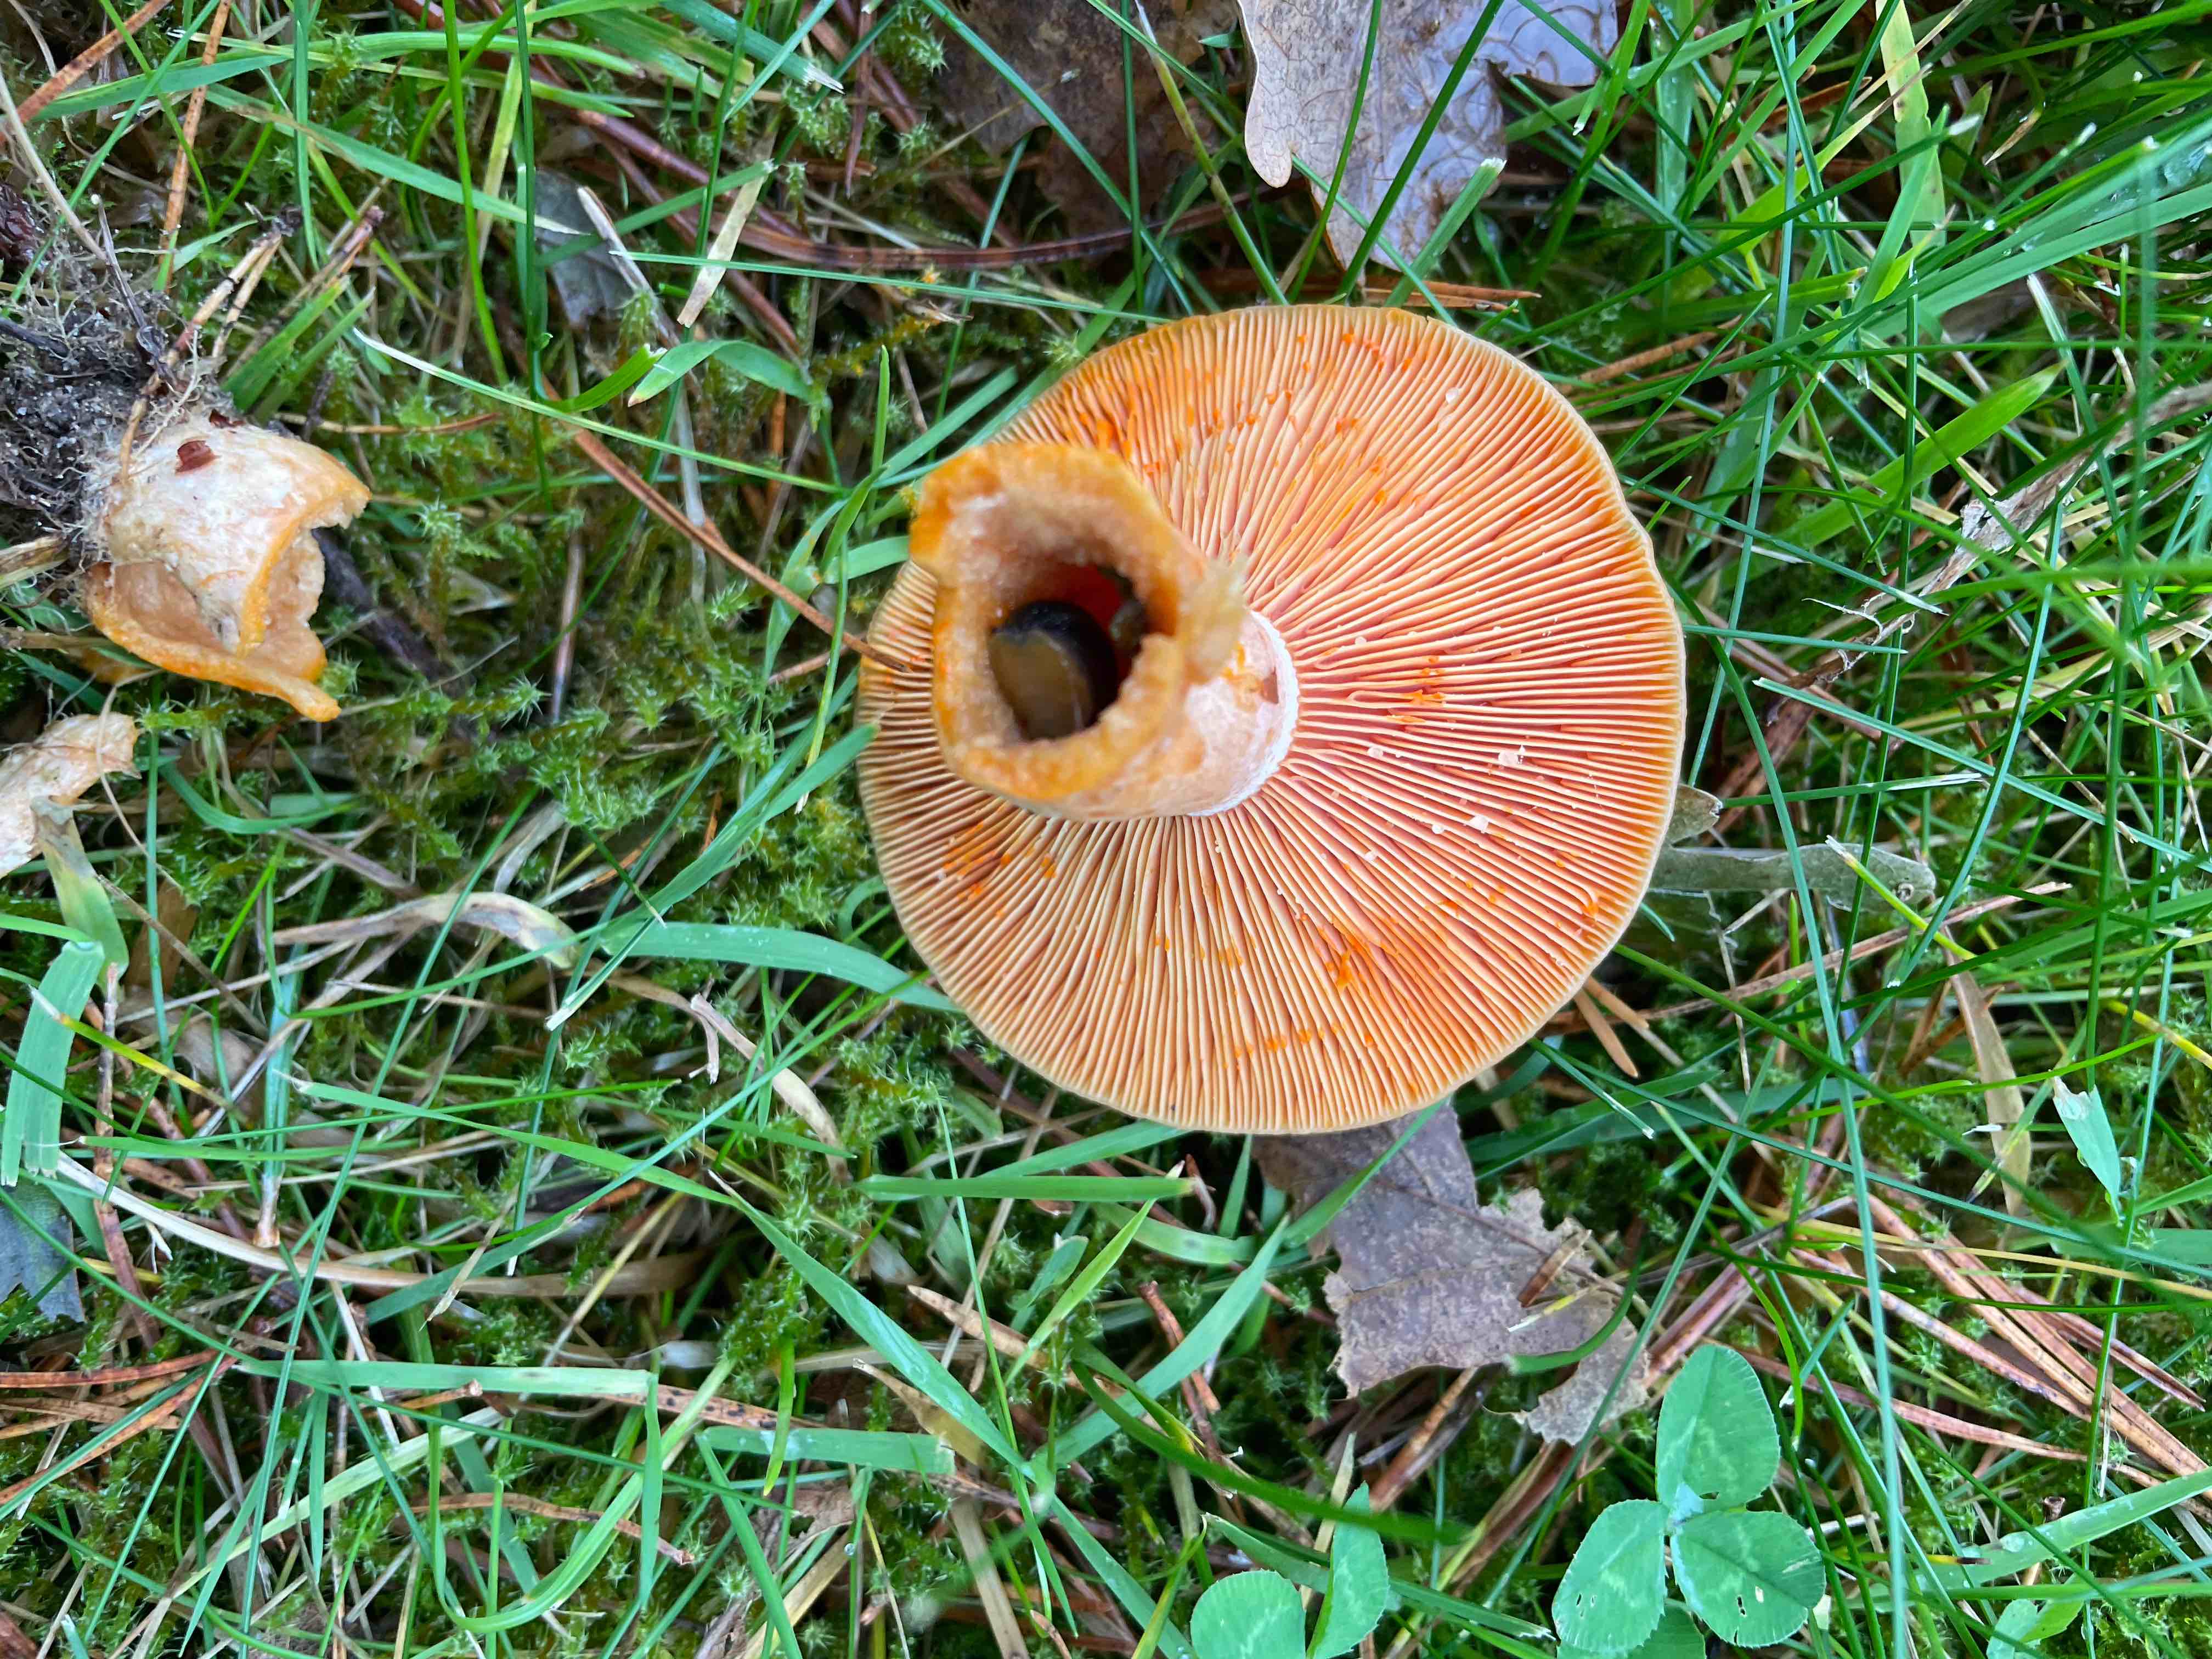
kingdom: Fungi
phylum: Basidiomycota
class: Agaricomycetes
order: Russulales
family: Russulaceae
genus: Lactarius
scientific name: Lactarius deliciosus
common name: velsmagende mælkehat
